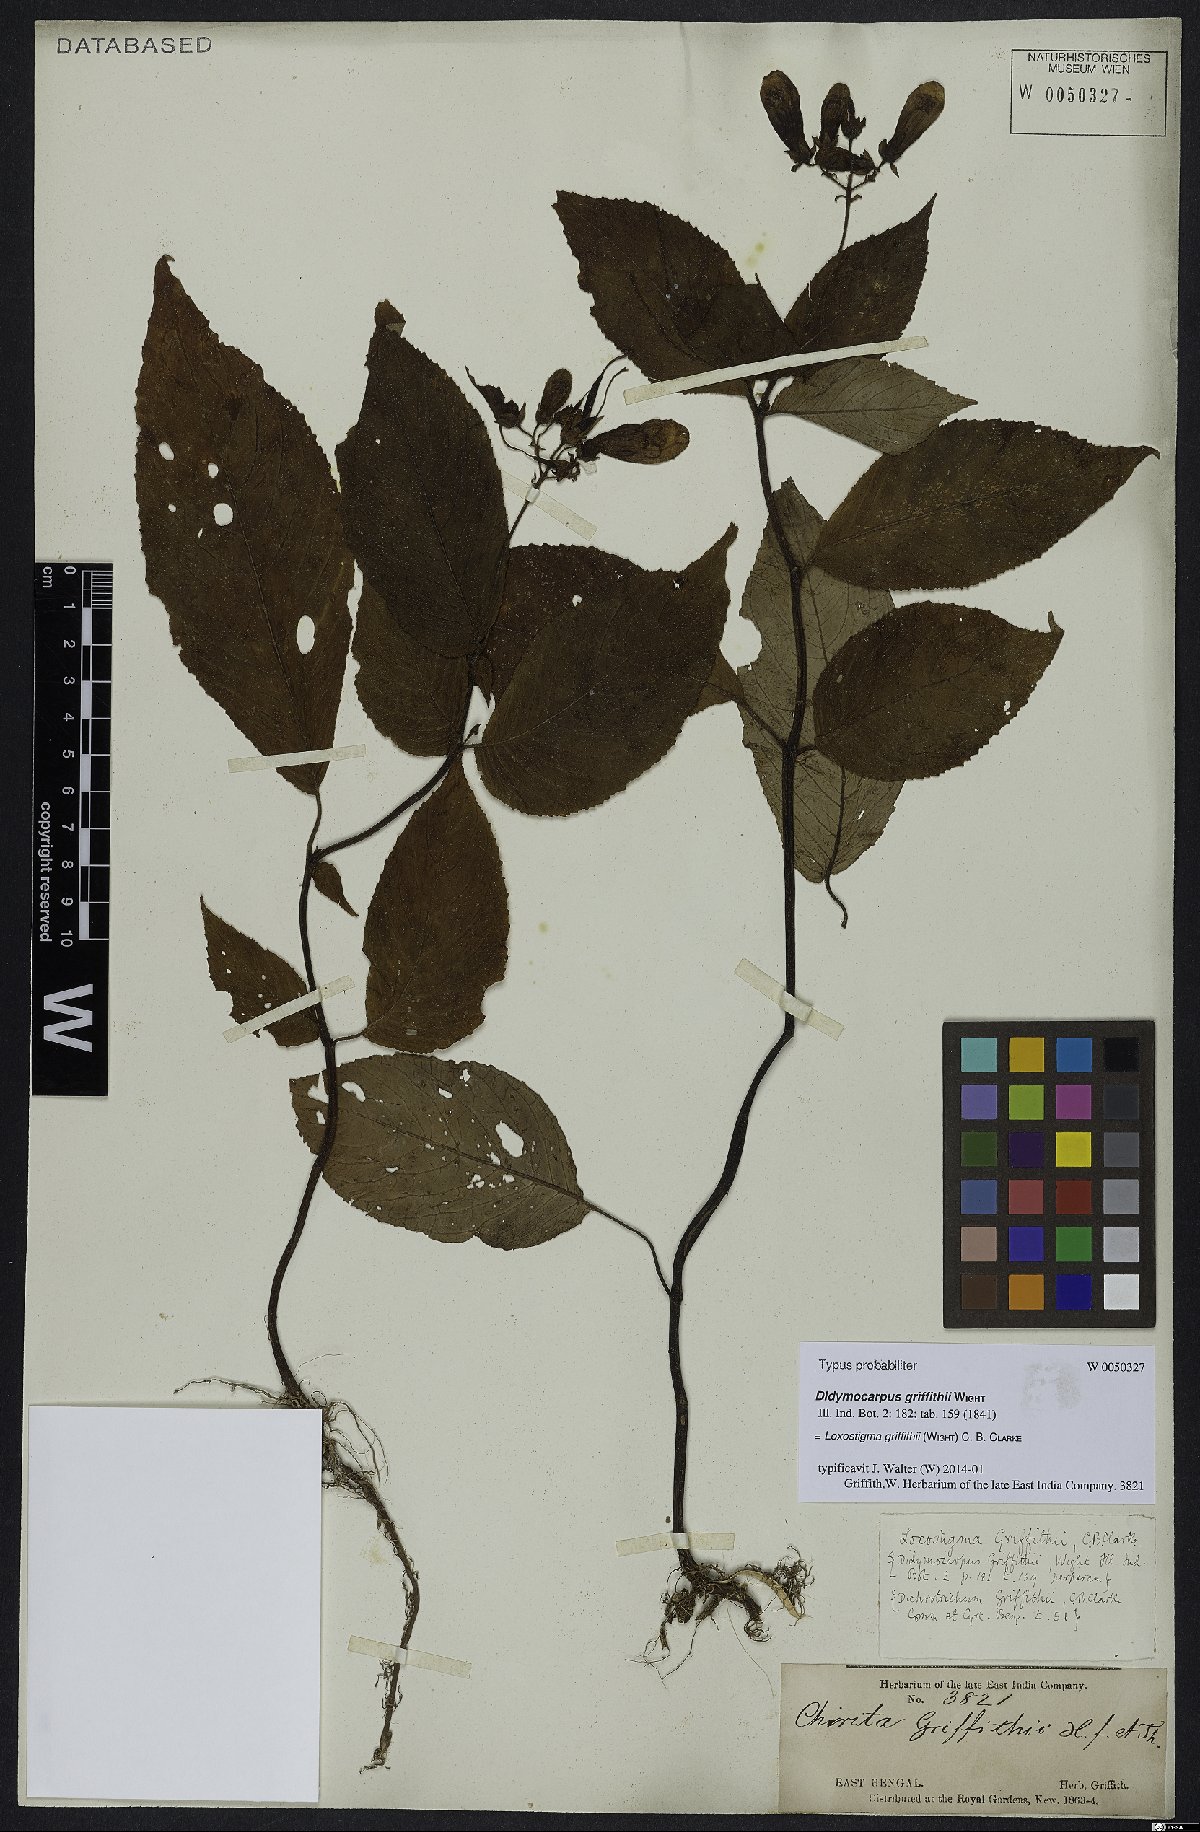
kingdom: Plantae
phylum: Tracheophyta
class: Magnoliopsida
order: Lamiales
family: Gesneriaceae
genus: Loxostigma
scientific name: Loxostigma griffithii
